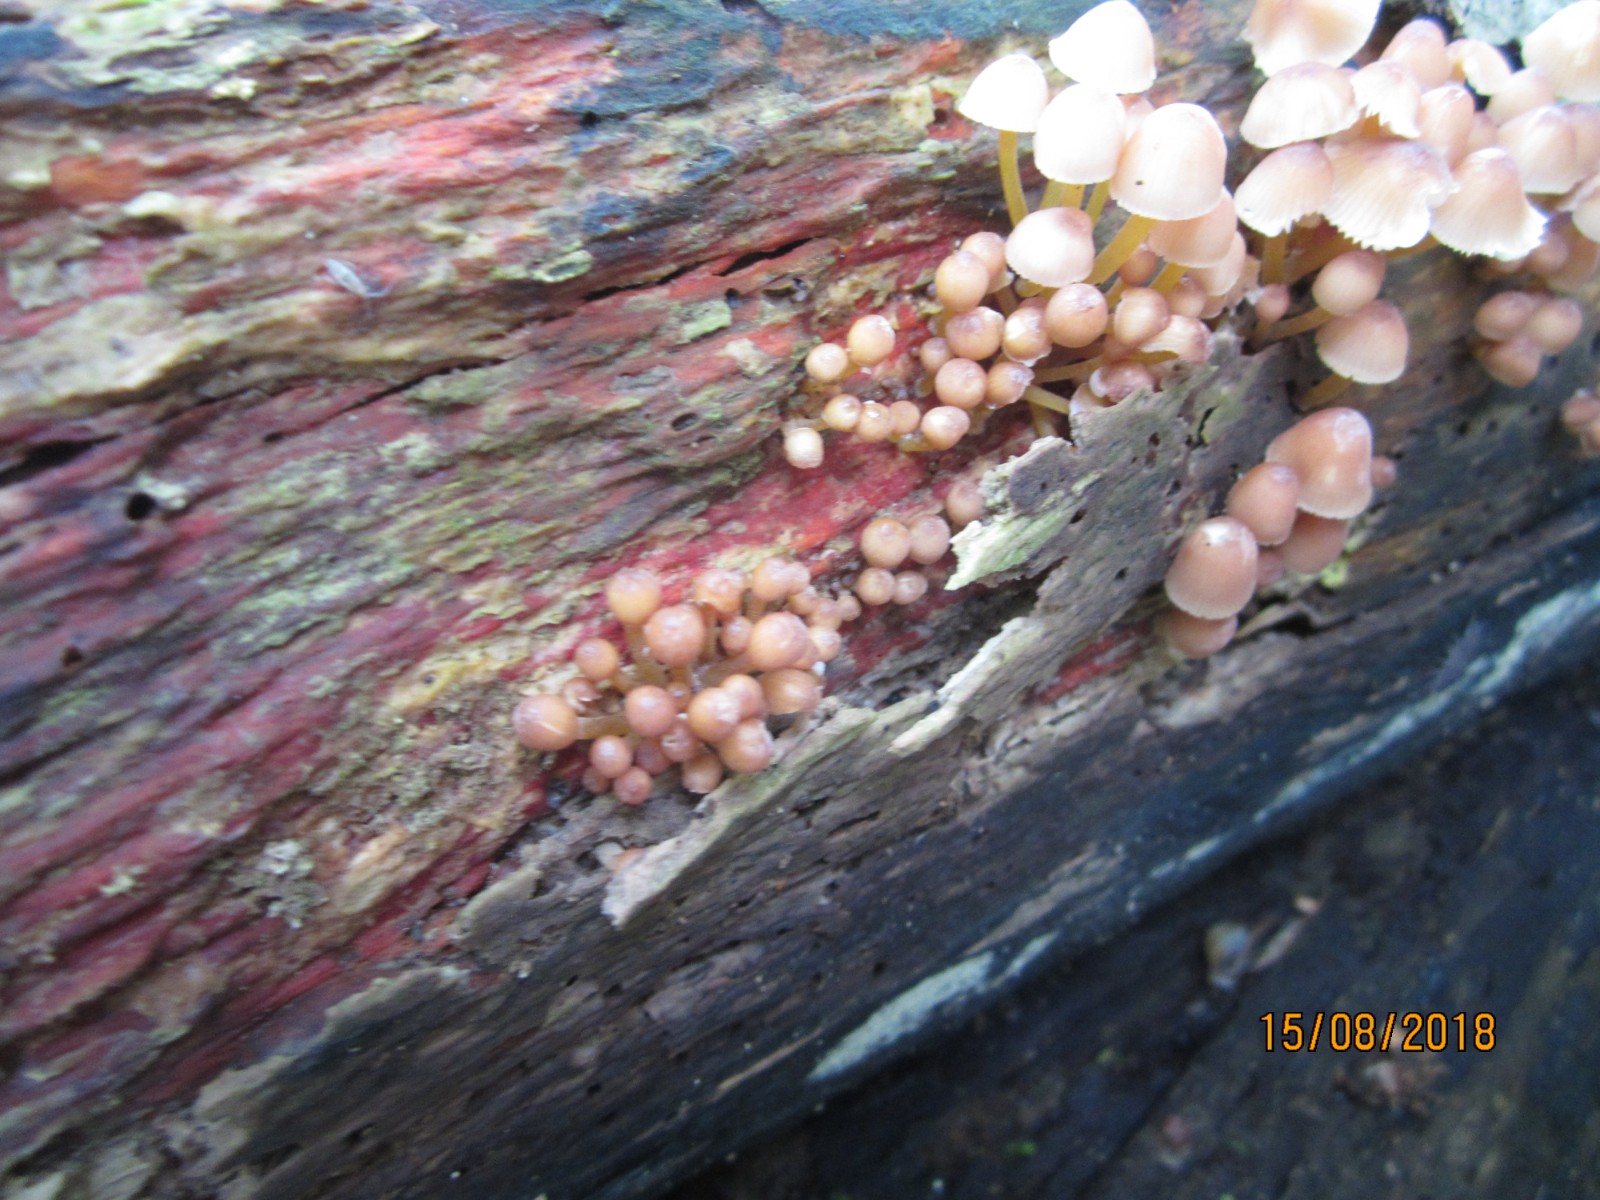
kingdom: Fungi
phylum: Basidiomycota
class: Agaricomycetes
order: Agaricales
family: Mycenaceae
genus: Mycena
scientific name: Mycena renati
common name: smuk huesvamp
